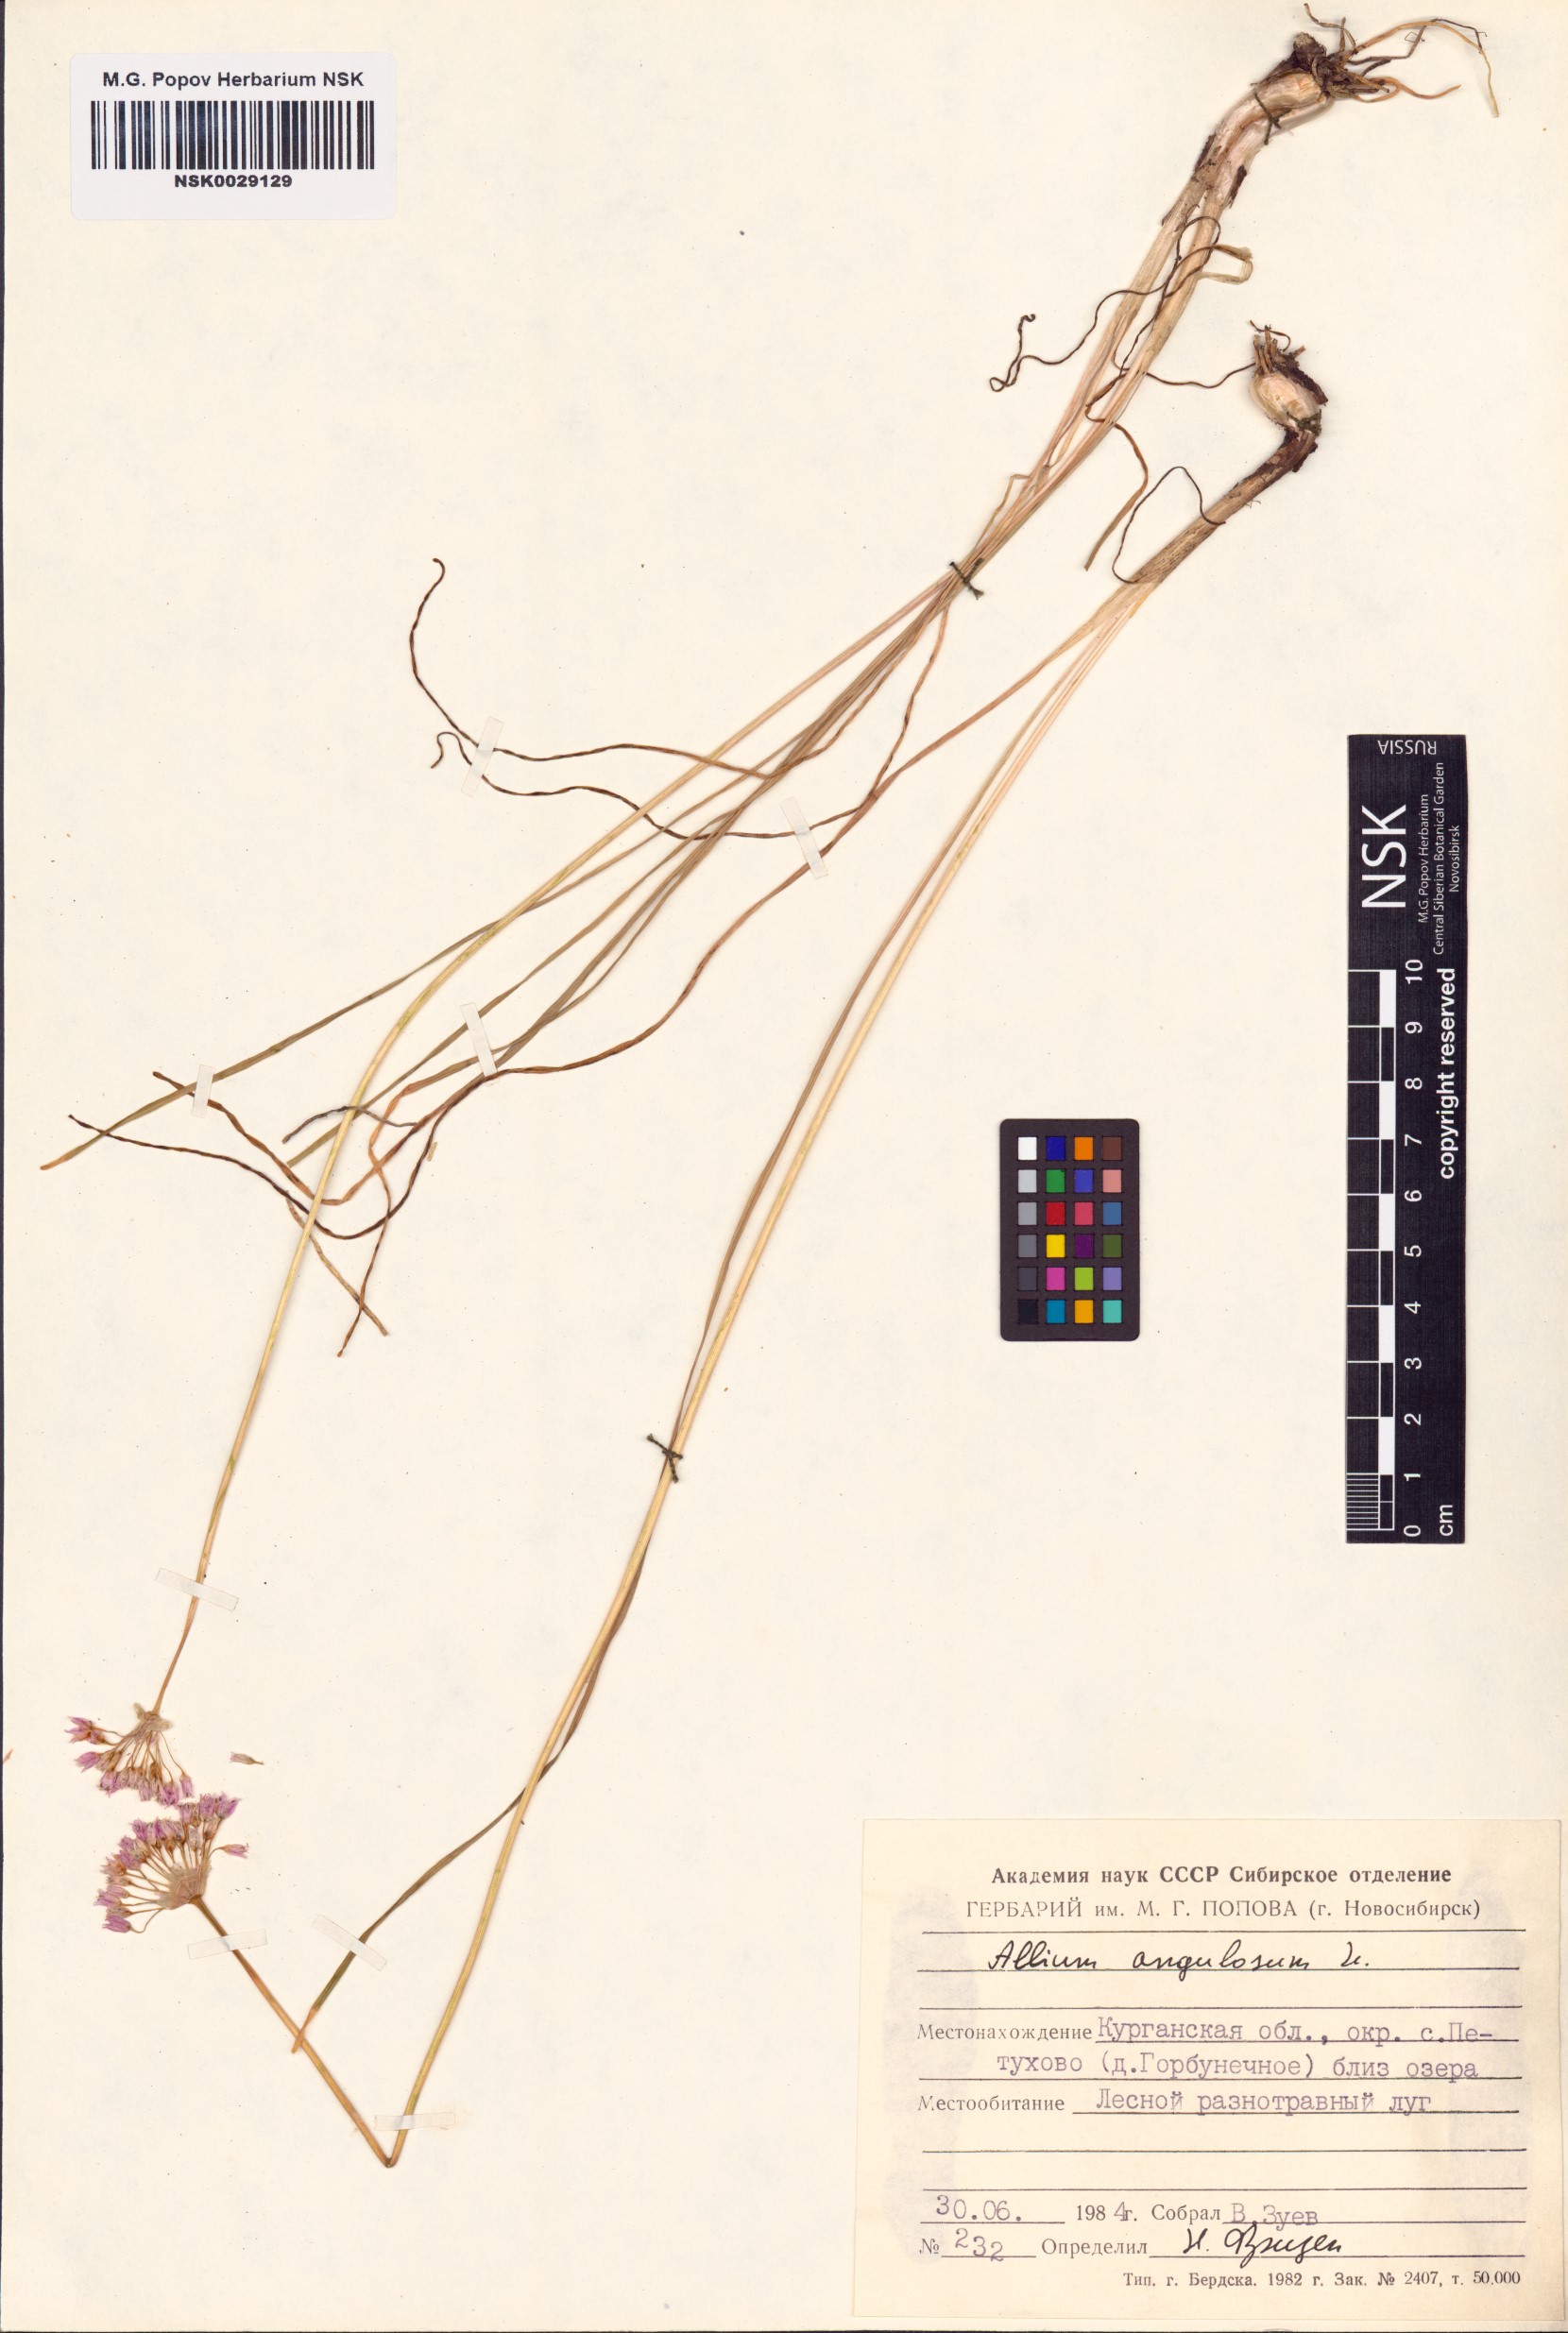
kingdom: Plantae
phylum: Tracheophyta
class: Liliopsida
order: Asparagales
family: Amaryllidaceae
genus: Allium
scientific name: Allium angulosum
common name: Mouse garlic
